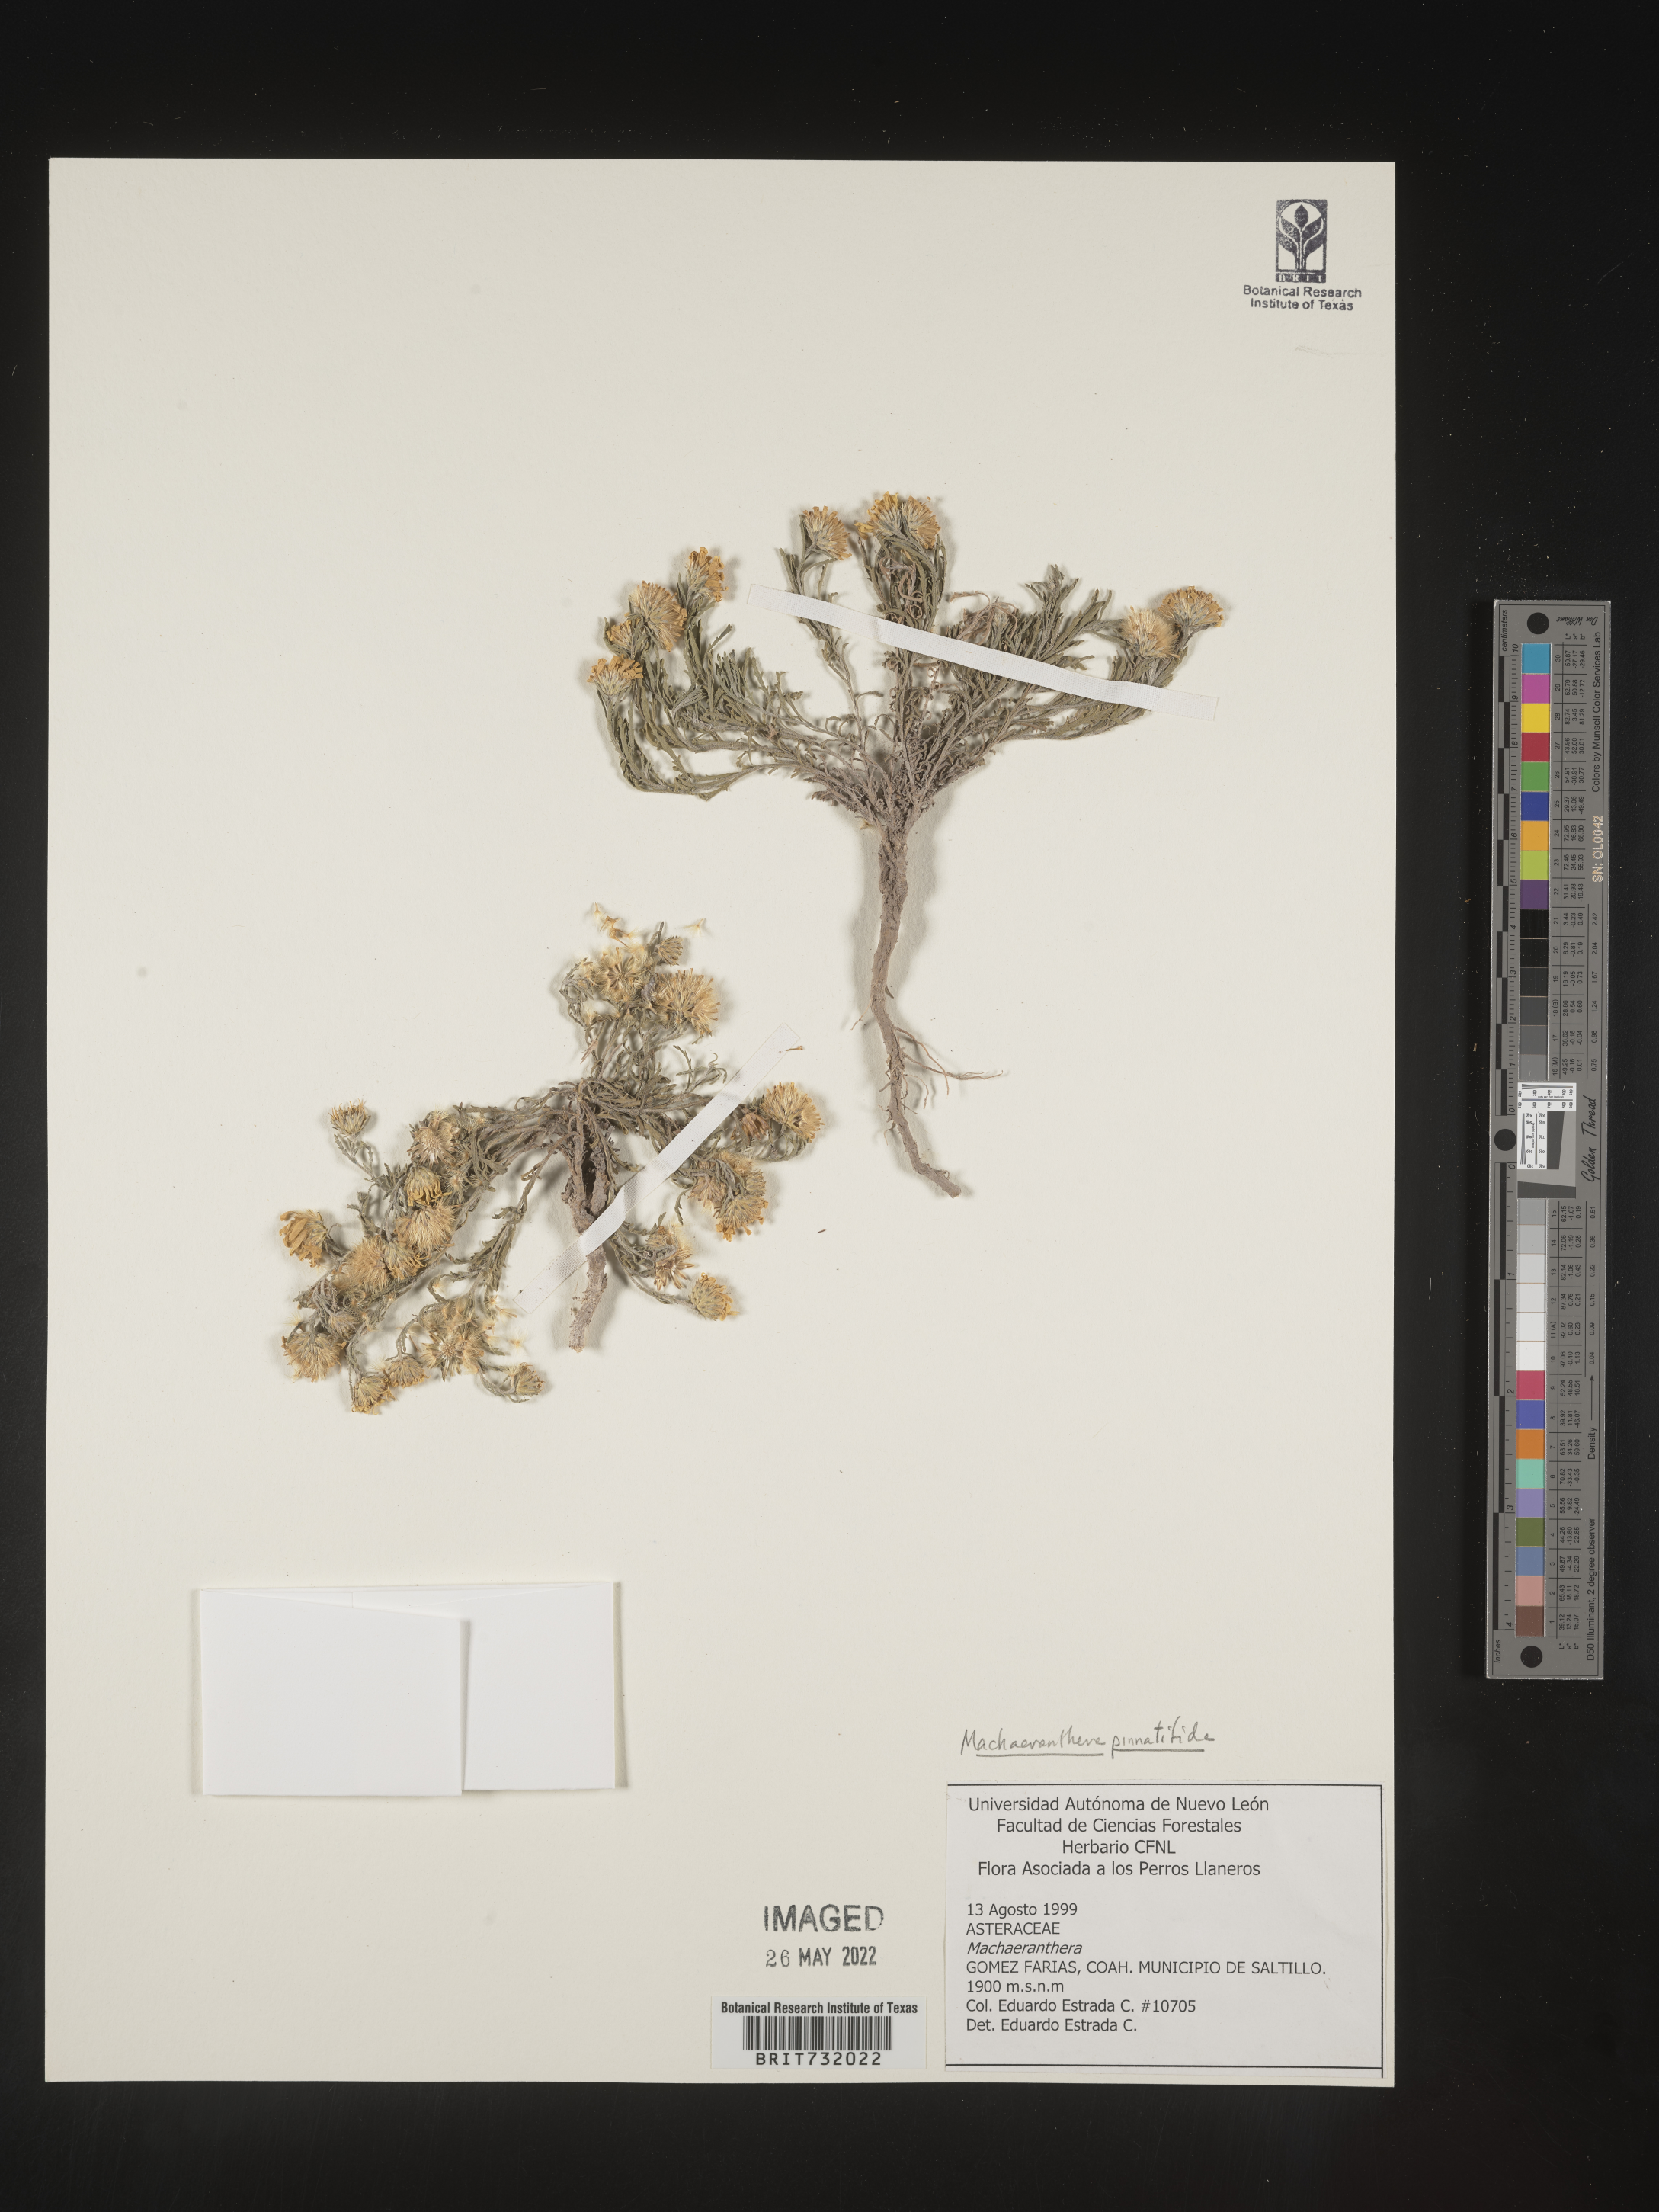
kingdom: Plantae
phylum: Tracheophyta
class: Magnoliopsida
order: Asterales
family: Asteraceae
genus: Xanthisma
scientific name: Xanthisma spinulosum
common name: Spiny goldenweed
